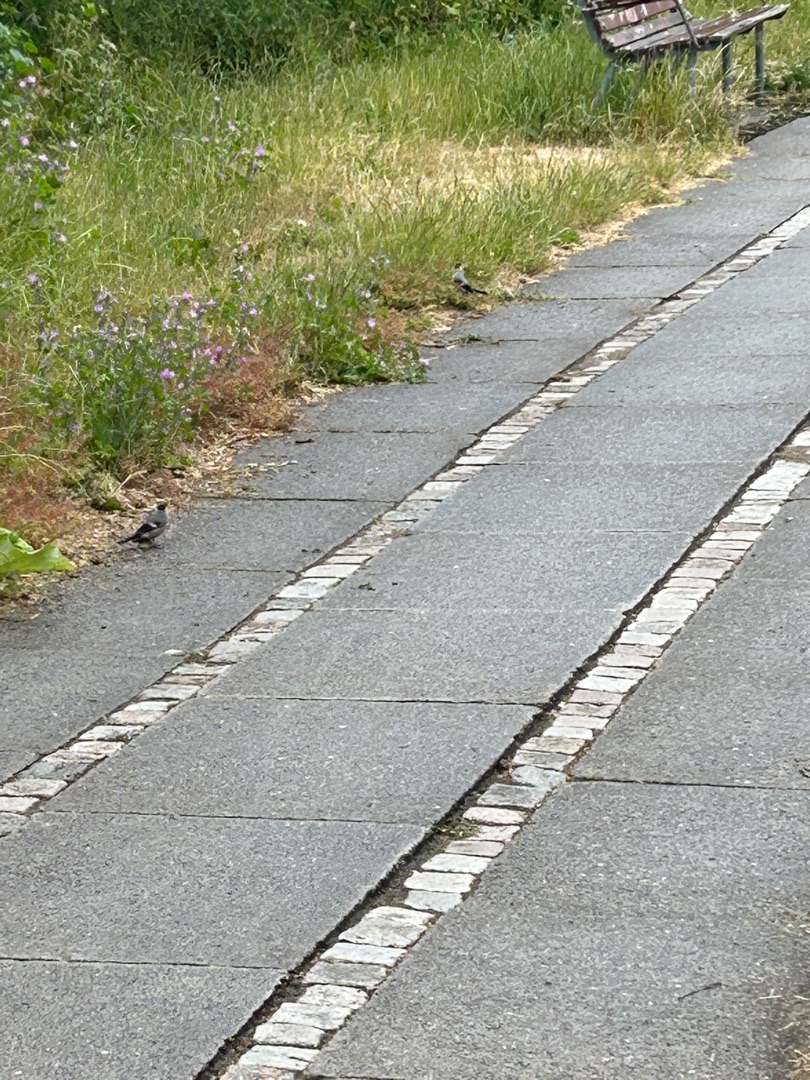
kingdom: Animalia
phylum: Chordata
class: Aves
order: Passeriformes
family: Fringillidae
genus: Pyrrhula
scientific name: Pyrrhula pyrrhula
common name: Dompap
